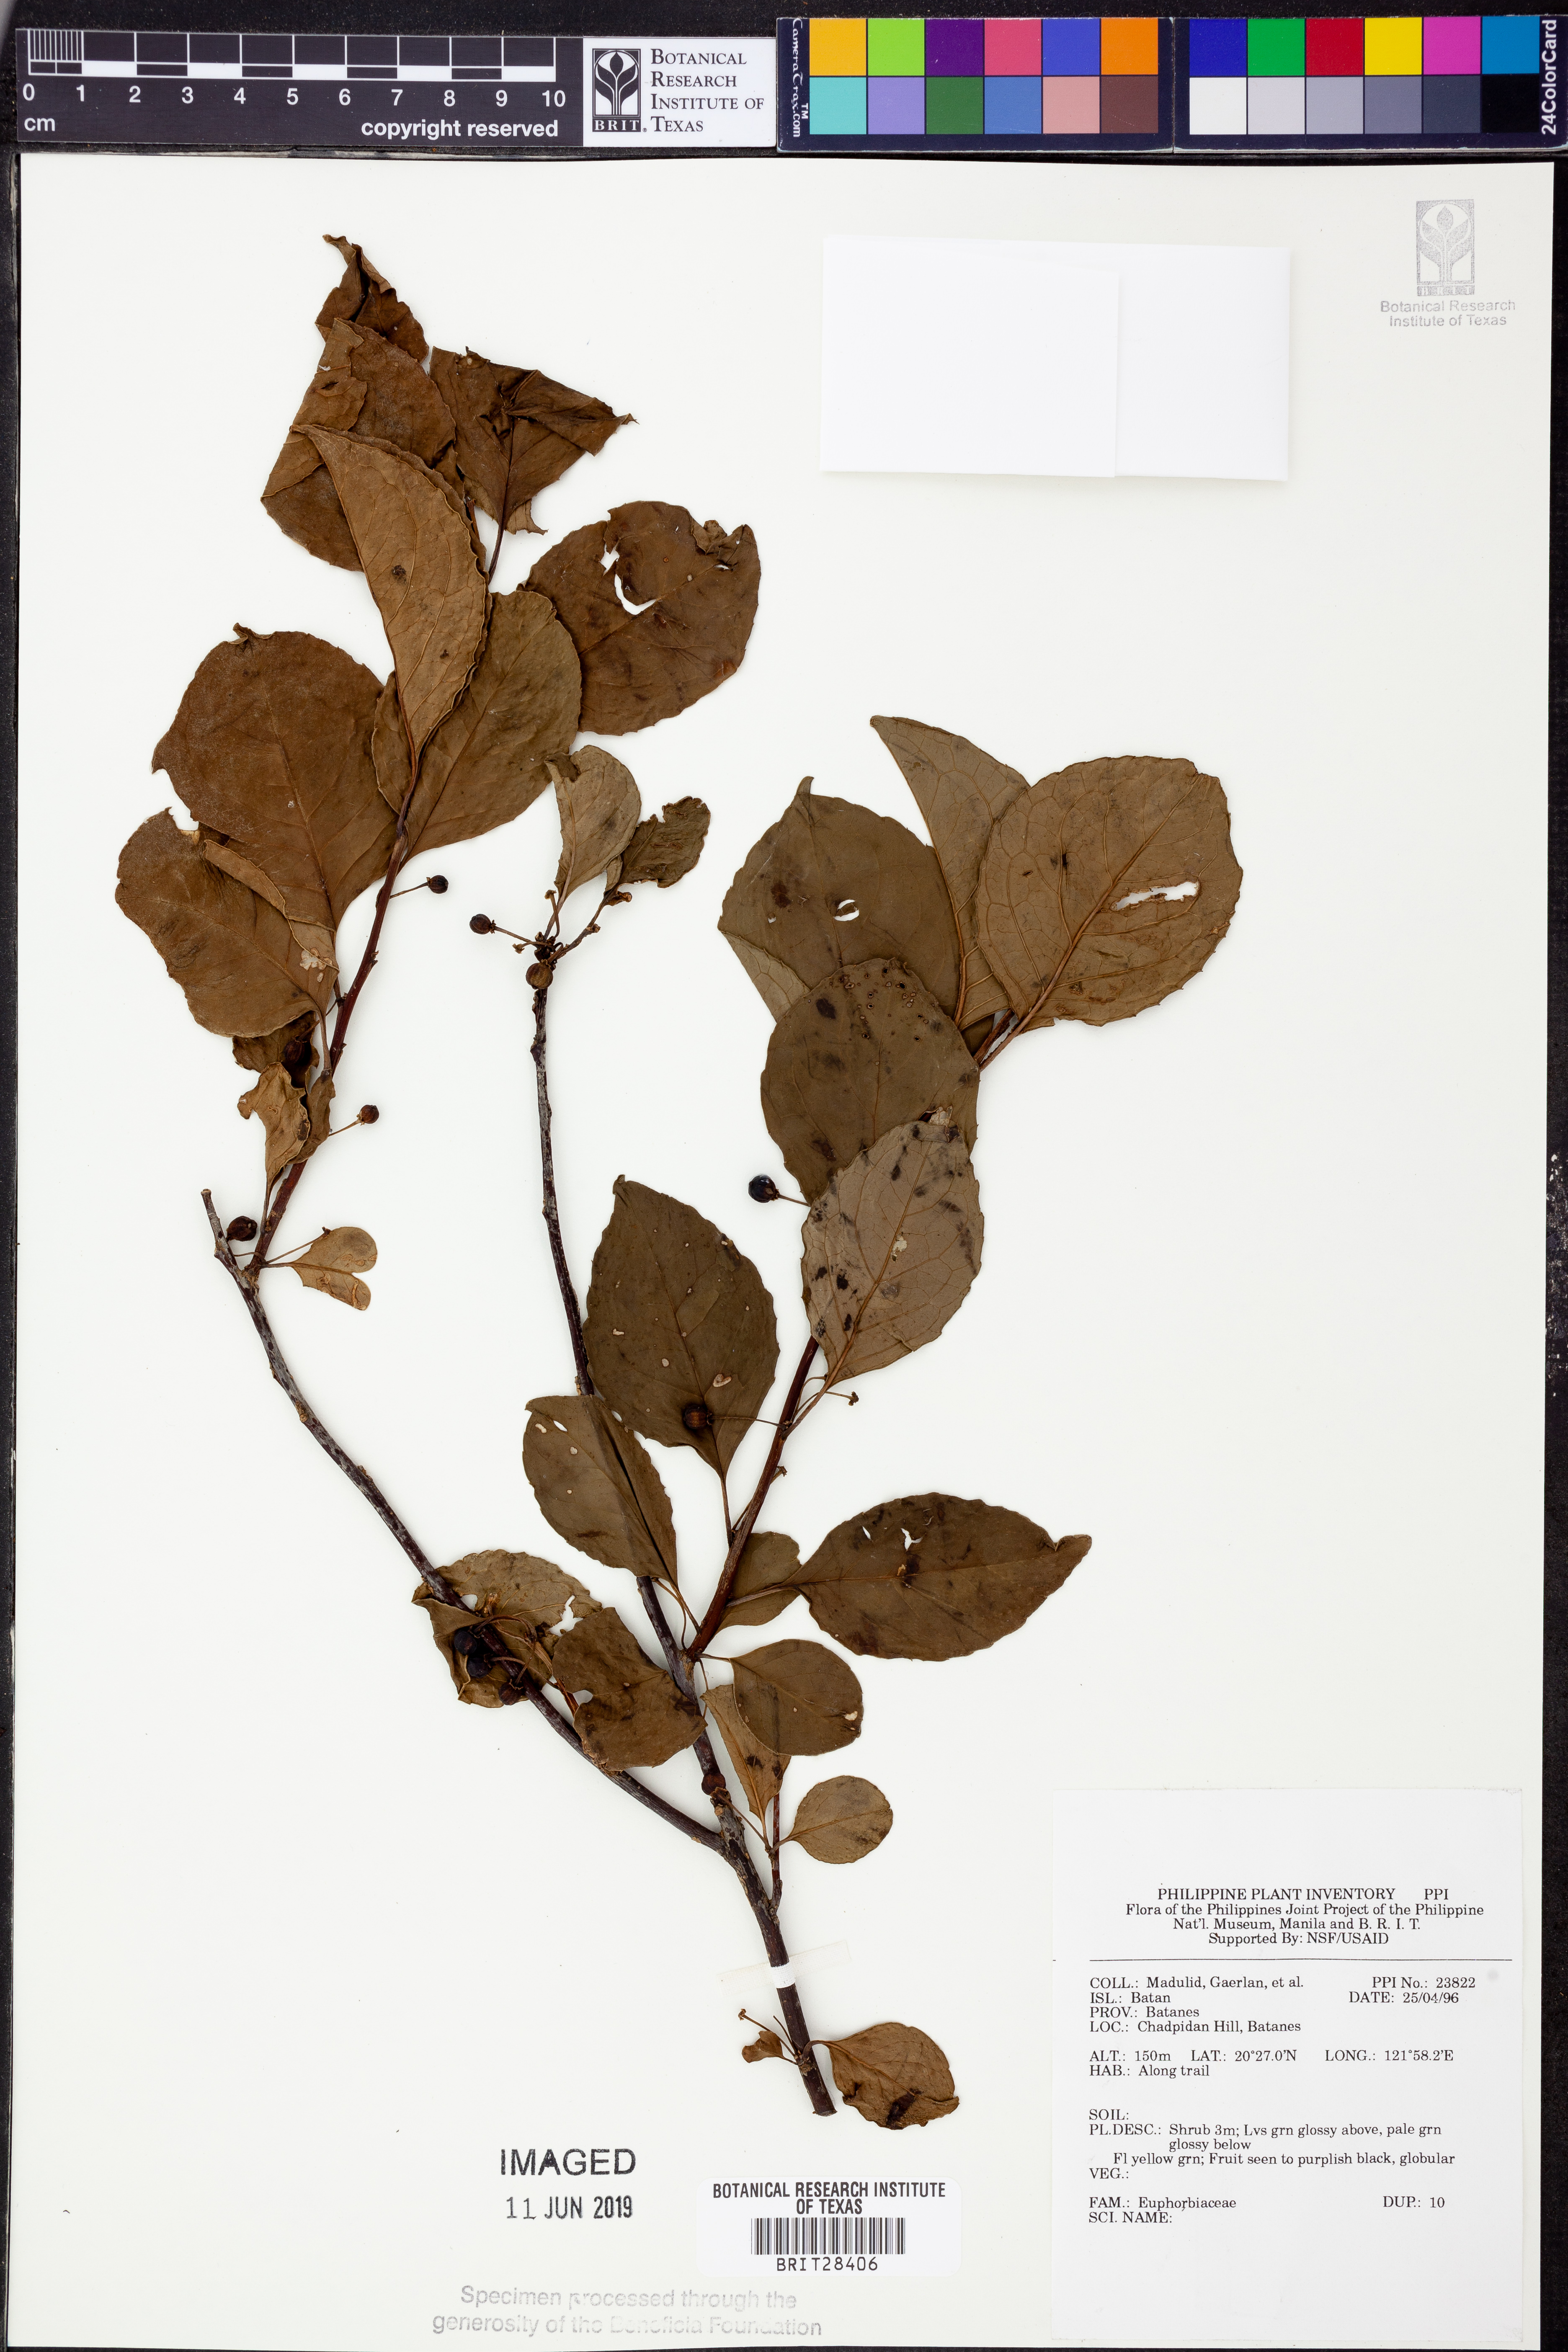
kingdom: Plantae
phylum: Tracheophyta
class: Magnoliopsida
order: Malpighiales
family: Euphorbiaceae
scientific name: Euphorbiaceae
